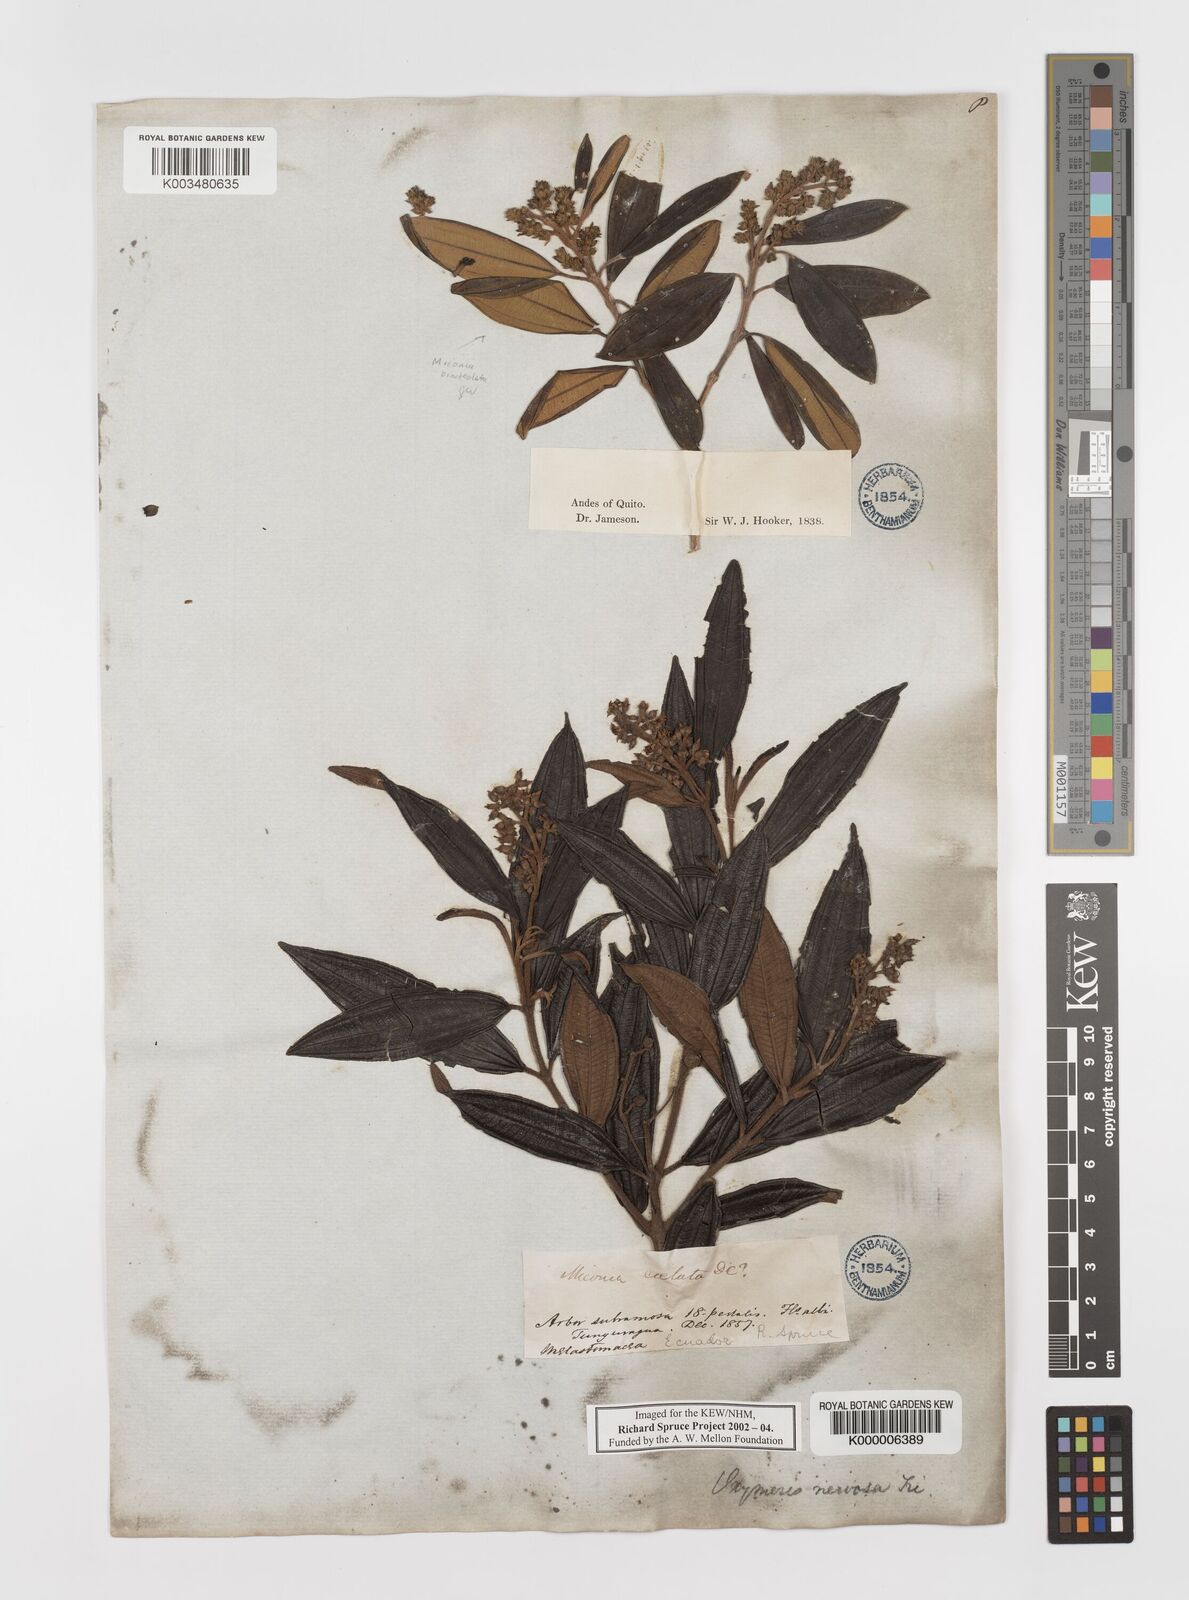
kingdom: Plantae
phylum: Tracheophyta
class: Magnoliopsida
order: Myrtales
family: Melastomataceae
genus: Miconia
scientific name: Miconia nervosissima
